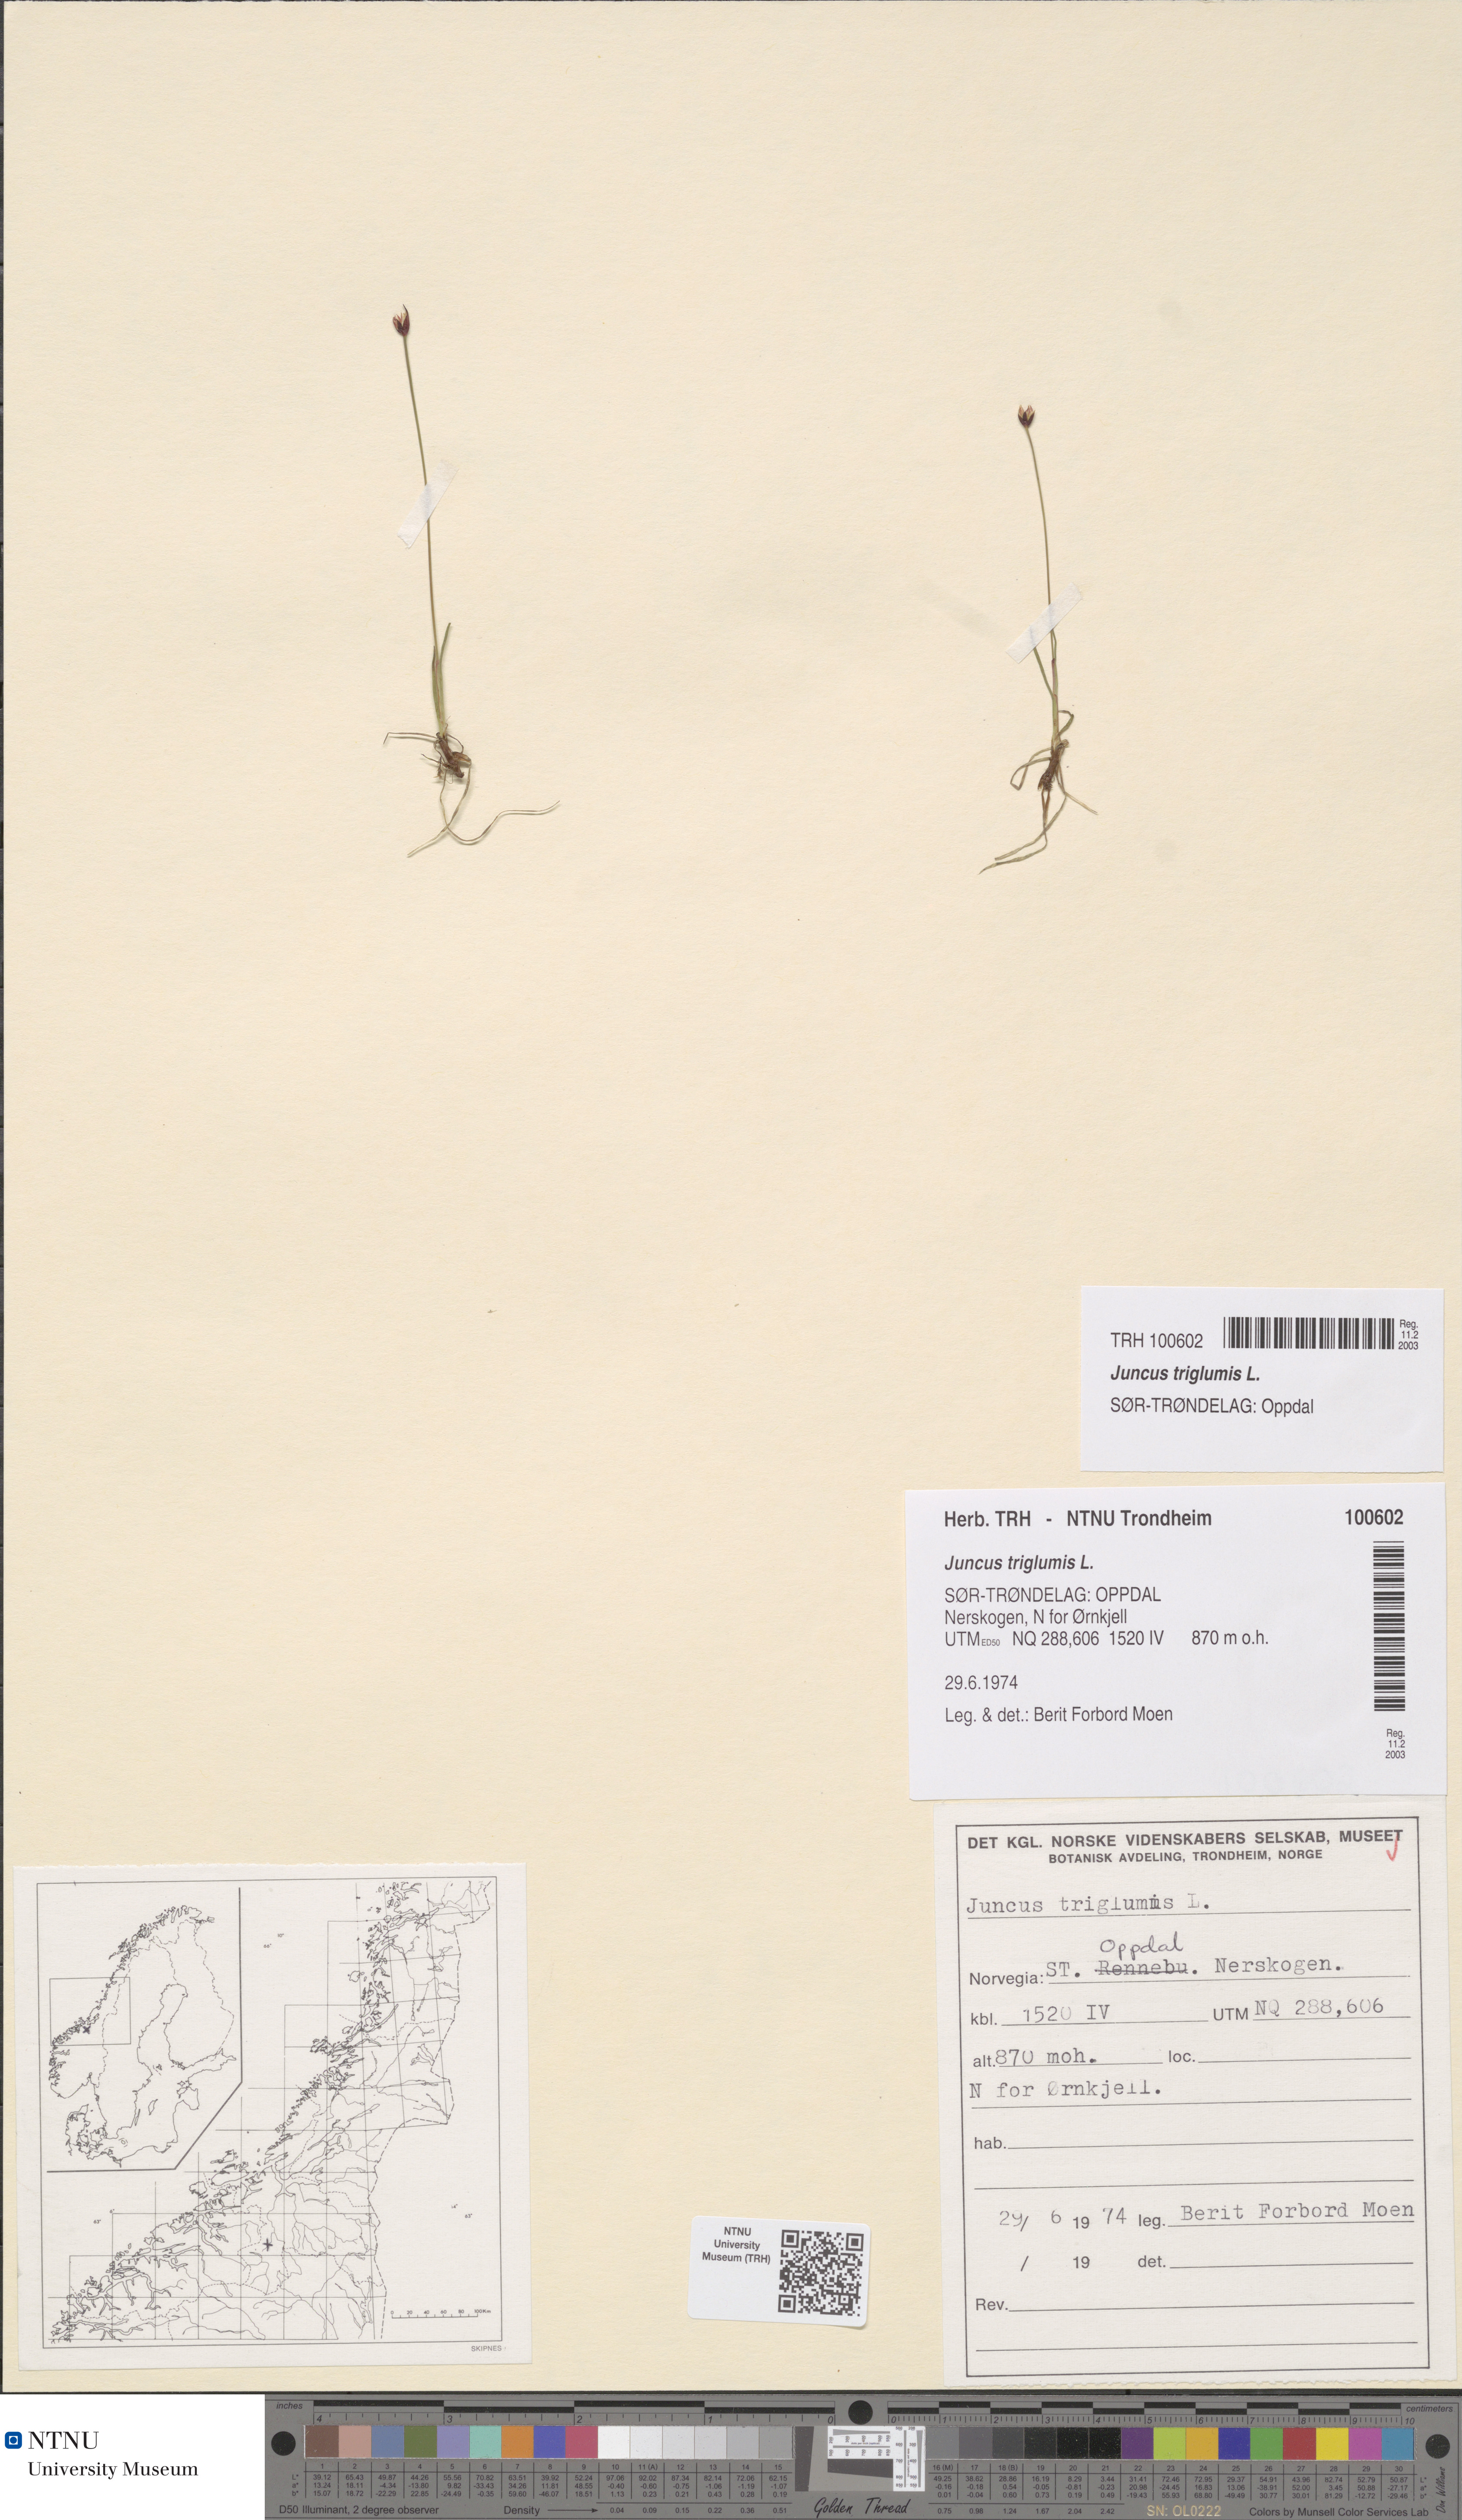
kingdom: Plantae
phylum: Tracheophyta
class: Liliopsida
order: Poales
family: Juncaceae
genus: Juncus
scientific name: Juncus triglumis
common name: Three-flowered rush
